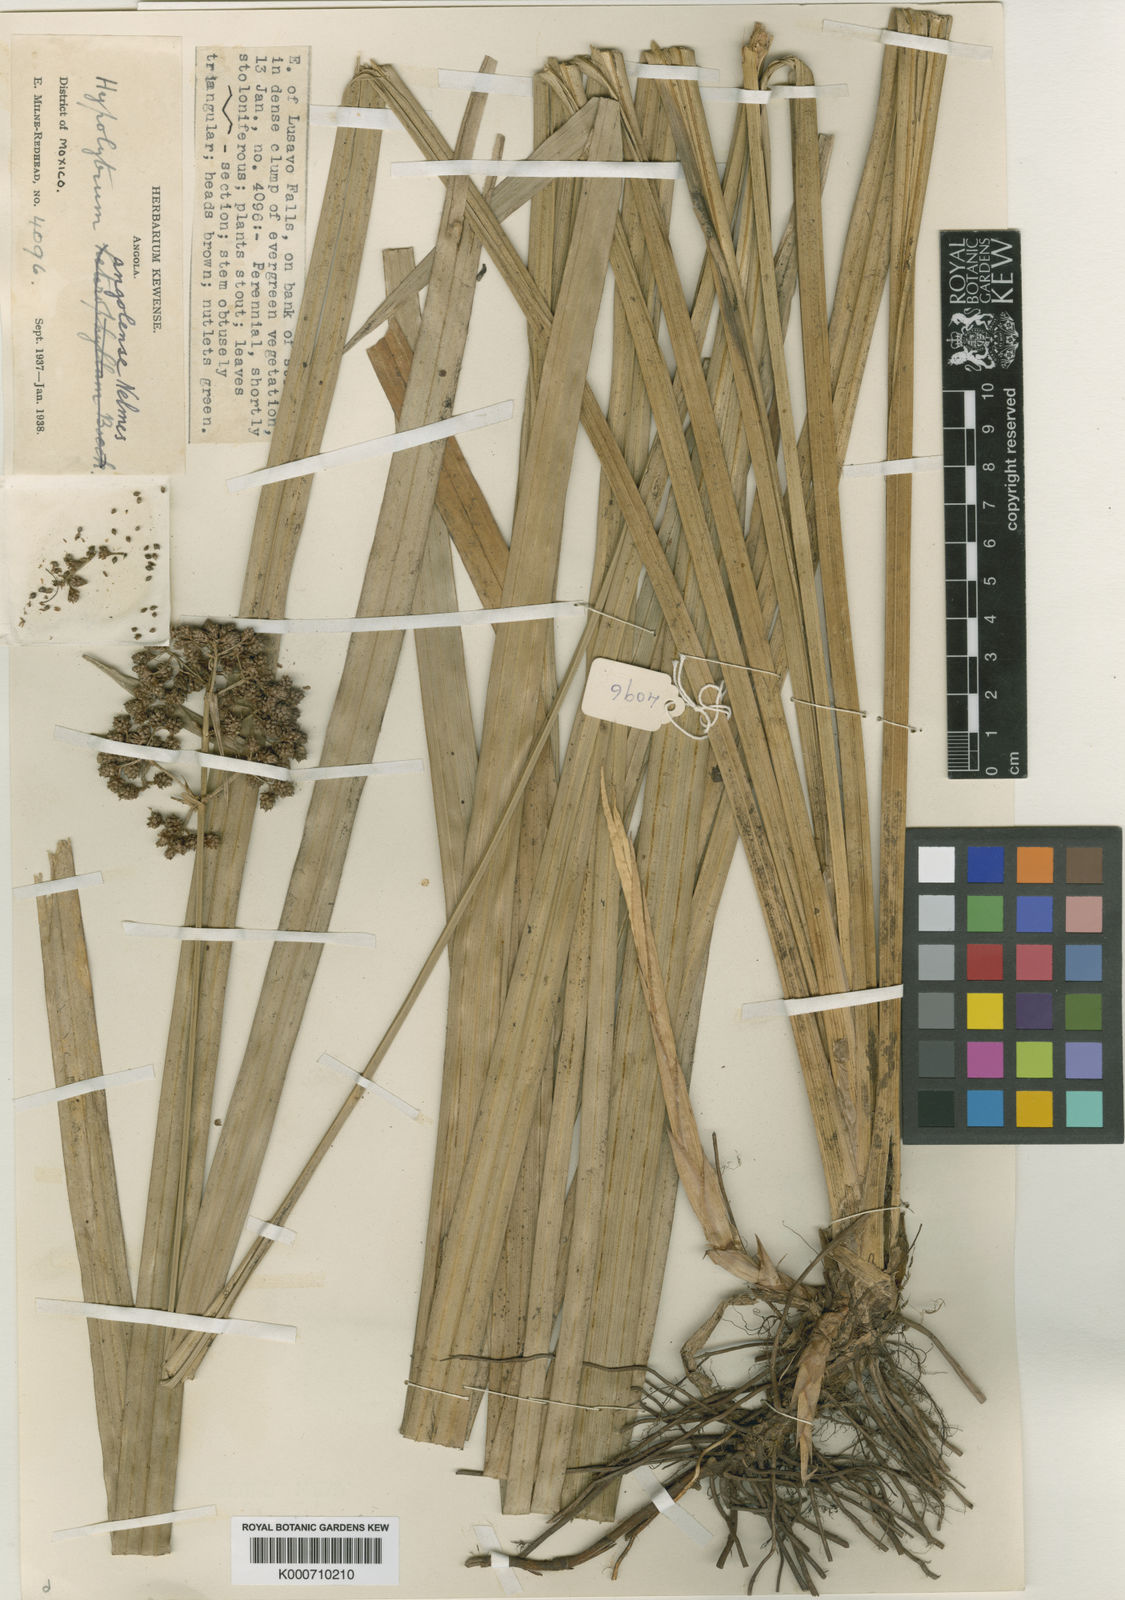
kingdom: Plantae
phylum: Tracheophyta
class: Liliopsida
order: Poales
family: Cyperaceae
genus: Hypolytrum
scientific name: Hypolytrum angolense
